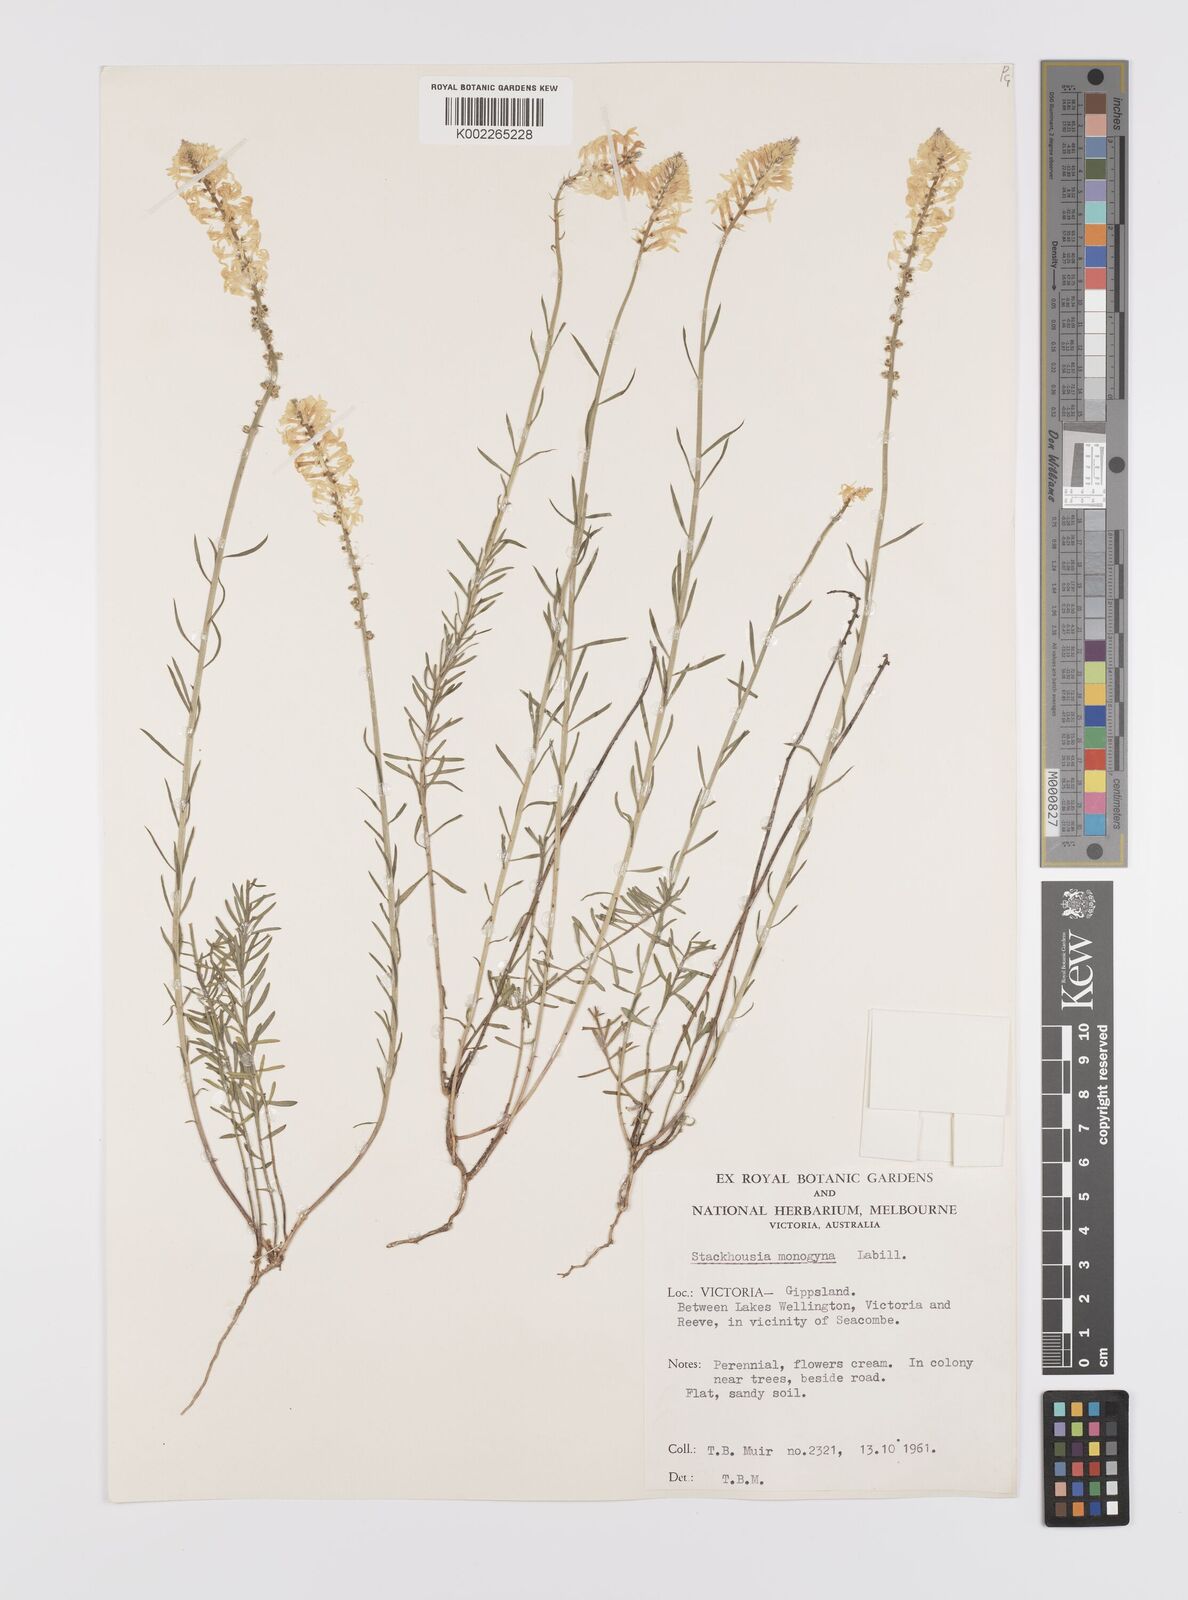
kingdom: Plantae
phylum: Tracheophyta
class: Magnoliopsida
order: Celastrales
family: Celastraceae
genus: Stackhousia
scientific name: Stackhousia monogyna
